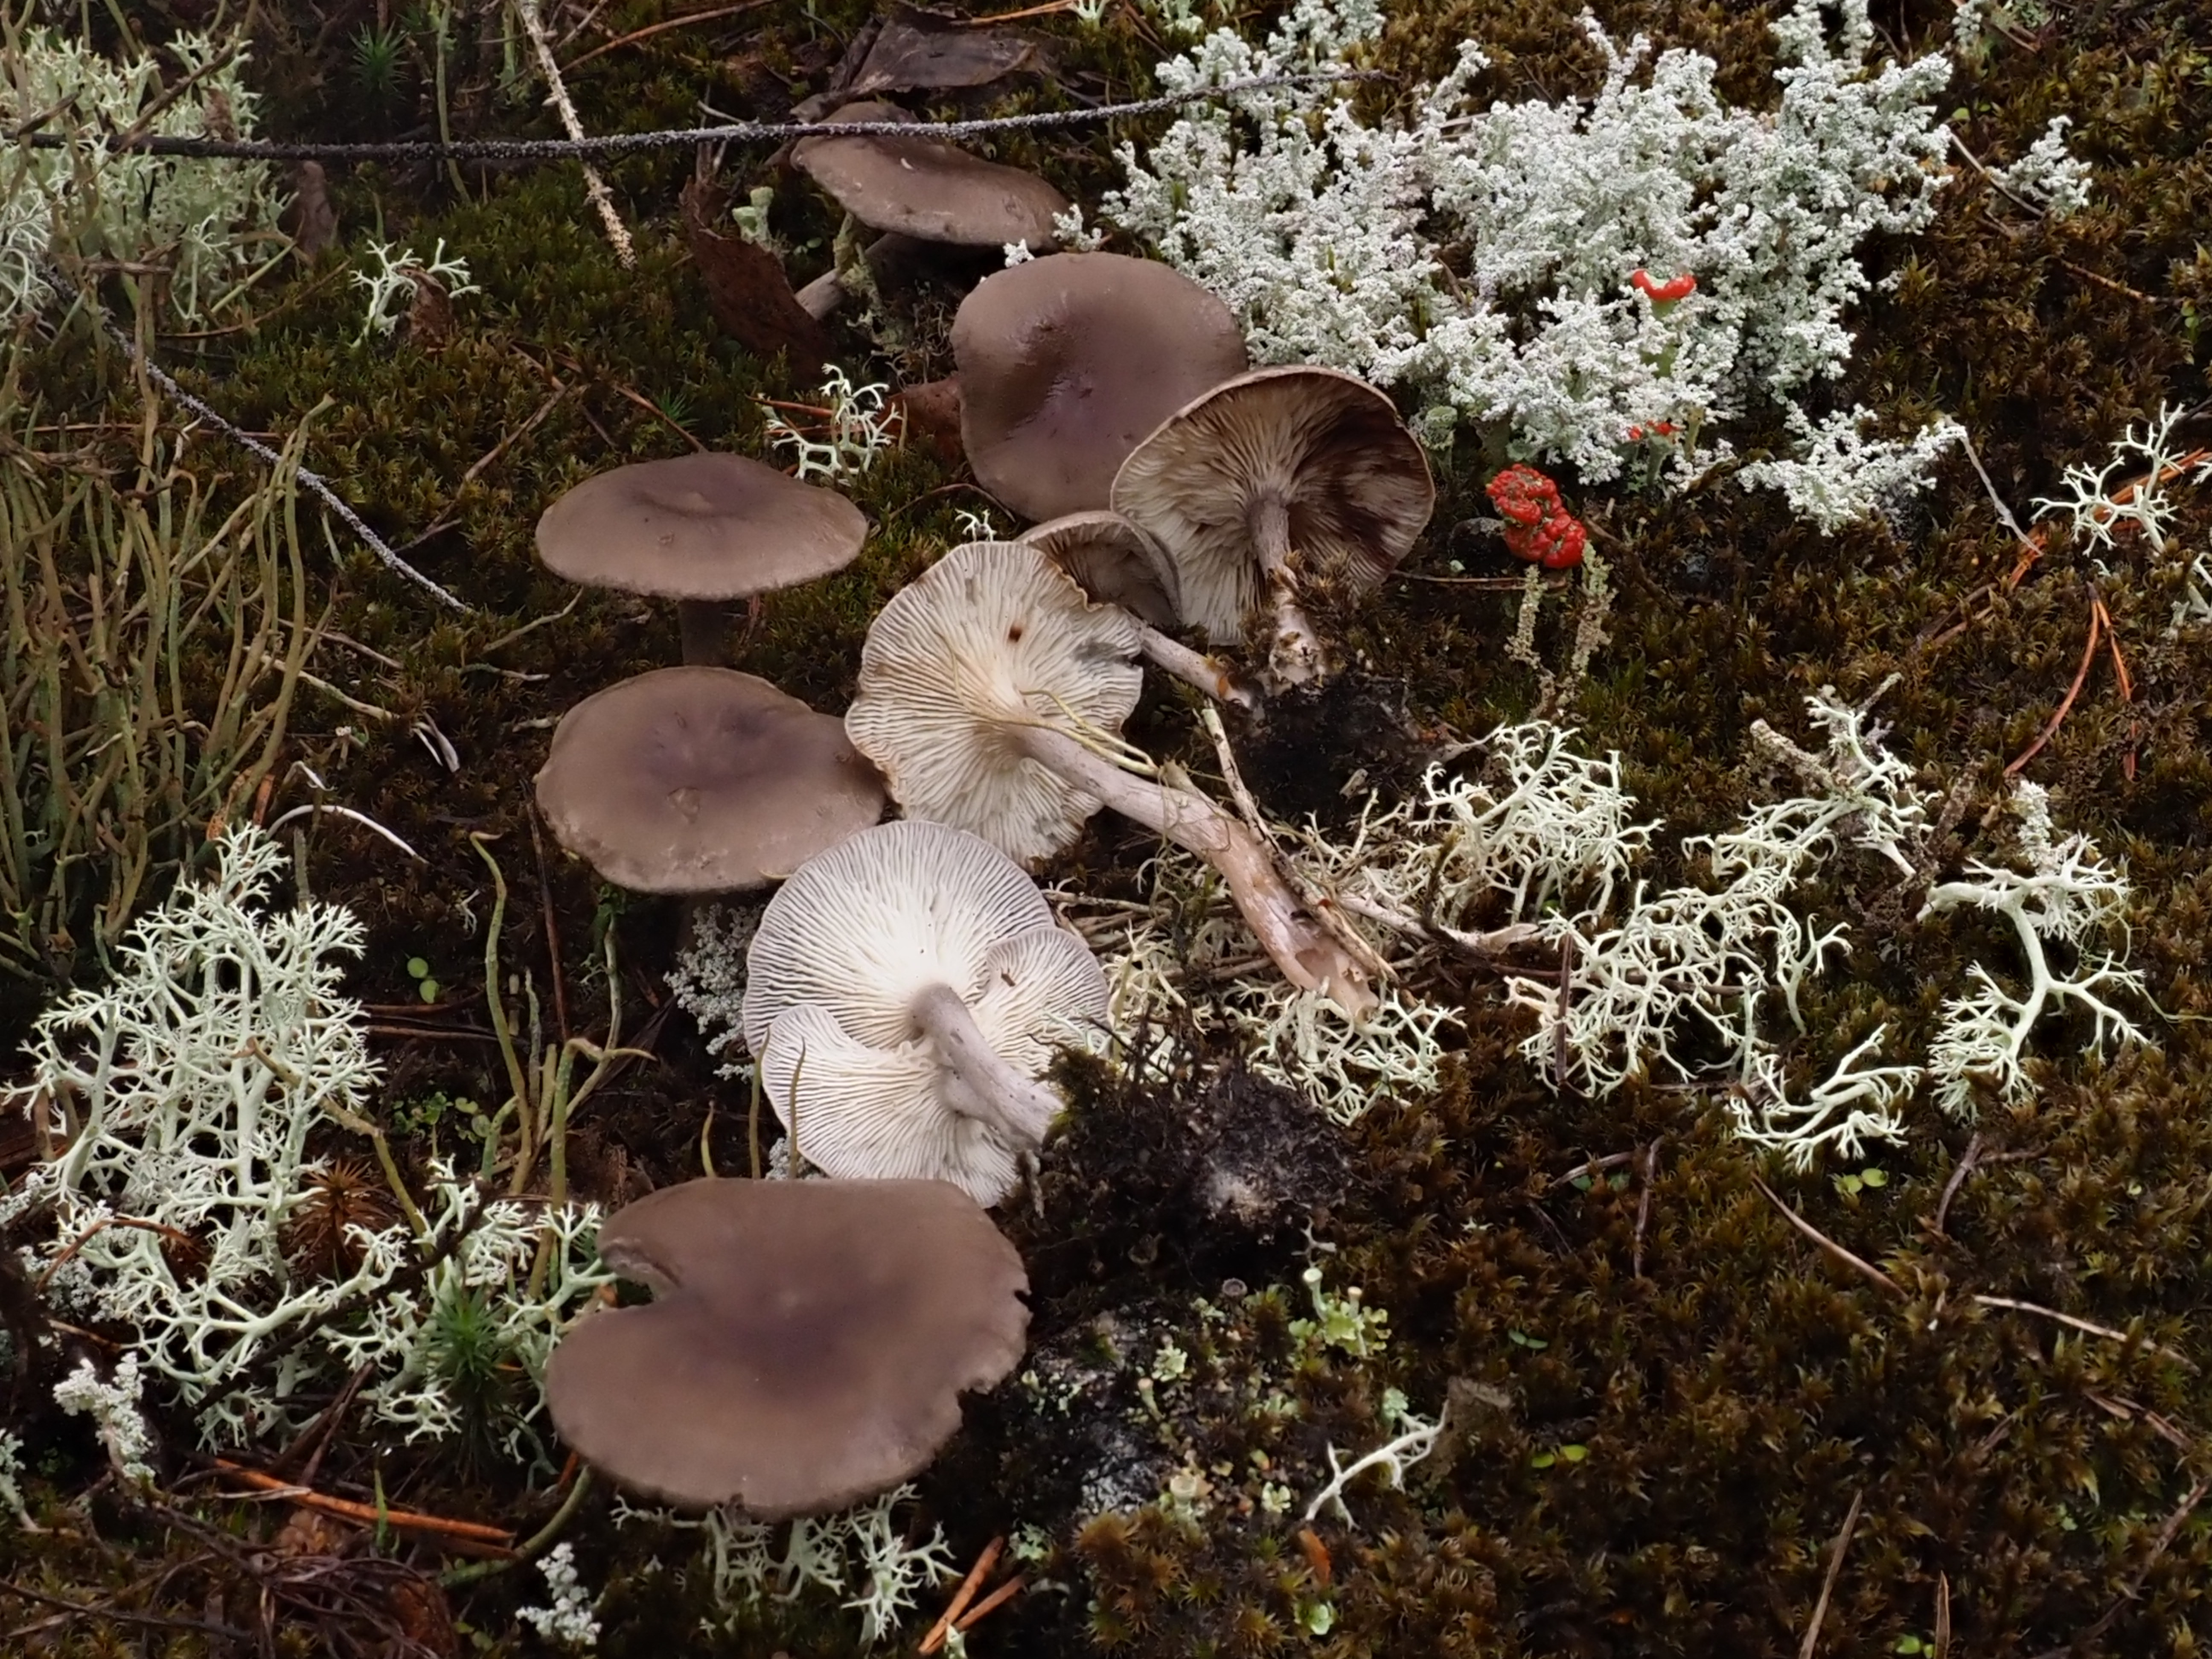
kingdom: Fungi
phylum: Basidiomycota
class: Agaricomycetes
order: Agaricales
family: Hygrophoraceae
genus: Cantharellula
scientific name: Cantharellula umbonata
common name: The humpback
